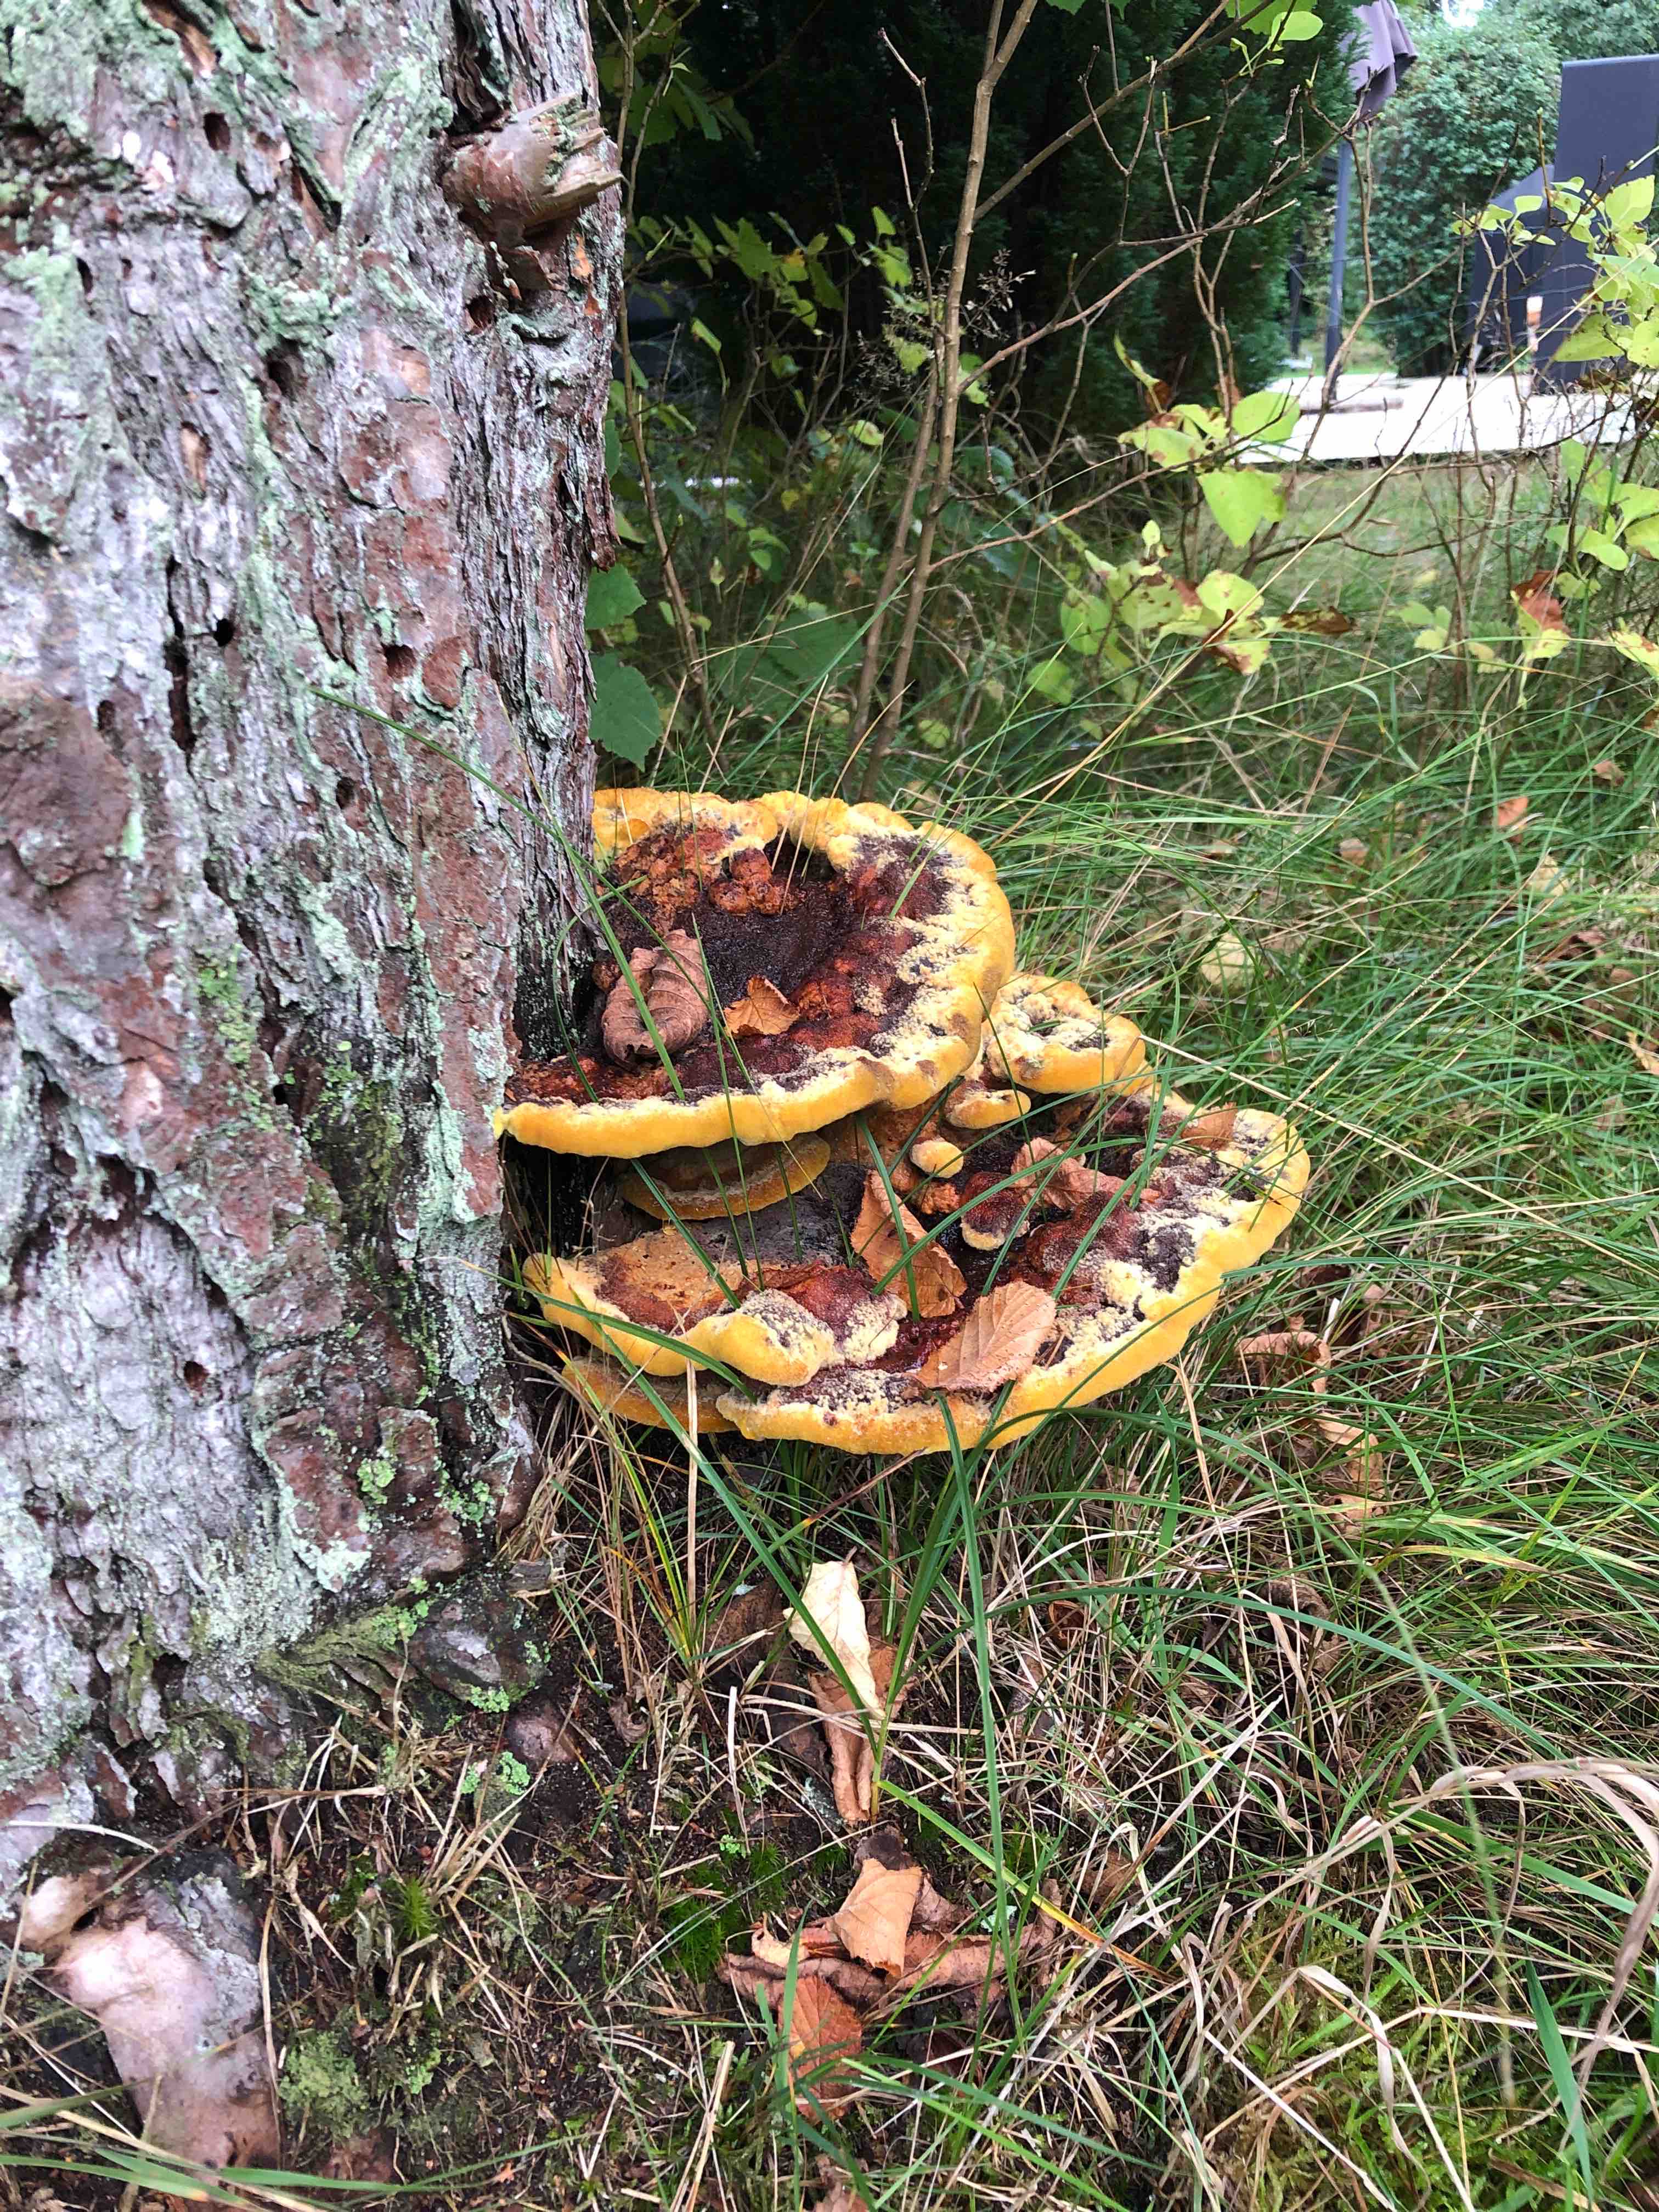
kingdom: Fungi
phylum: Basidiomycota
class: Agaricomycetes
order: Polyporales
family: Laetiporaceae
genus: Phaeolus
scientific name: Phaeolus schweinitzii
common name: brunporesvamp
